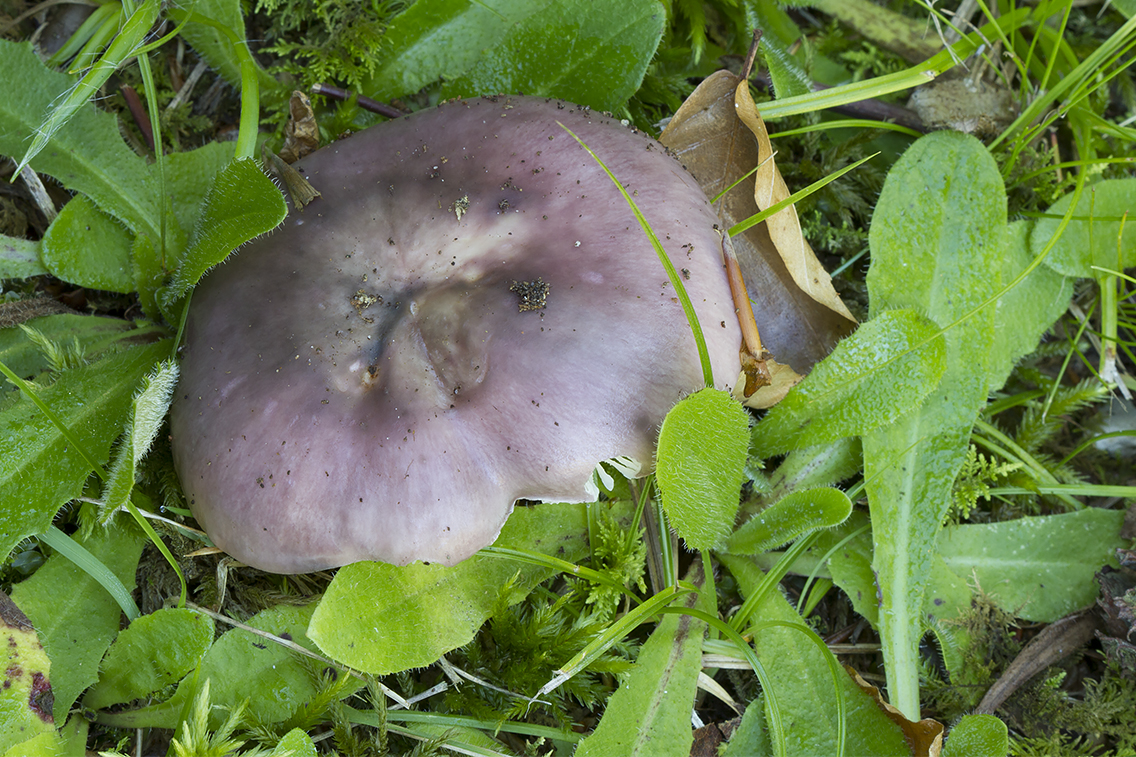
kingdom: Fungi
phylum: Basidiomycota
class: Agaricomycetes
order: Russulales
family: Russulaceae
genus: Russula
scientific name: Russula cyanoxantha
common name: broget skørhat
